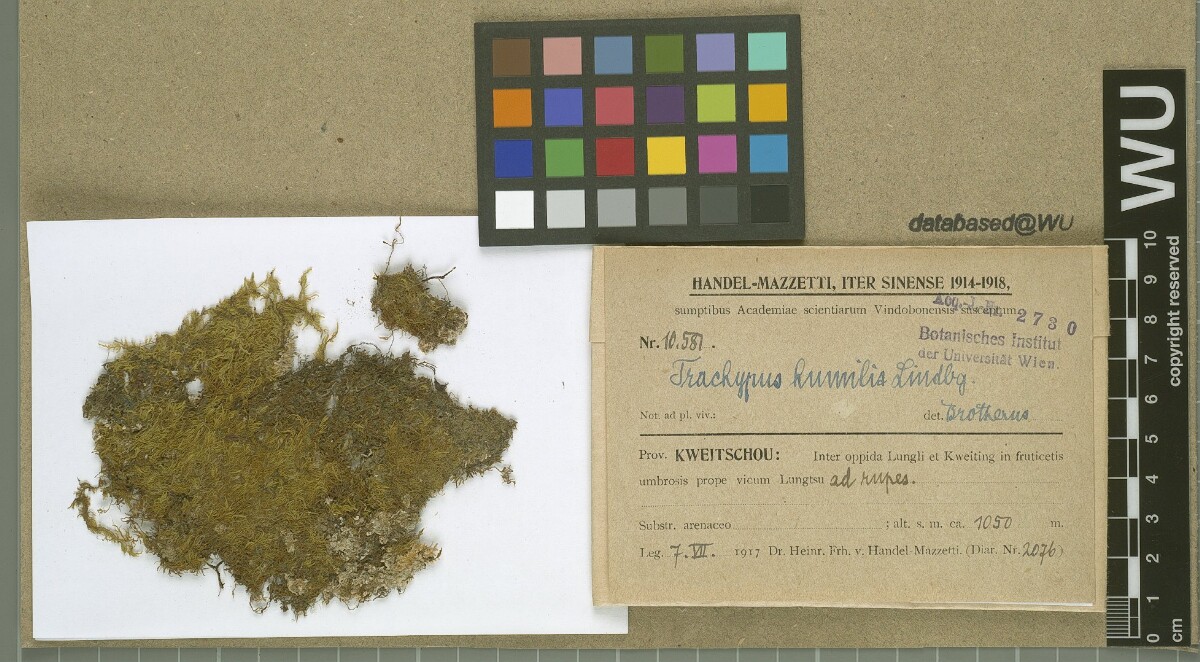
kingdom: Plantae
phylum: Bryophyta
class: Bryopsida
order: Hypnales
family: Meteoriaceae
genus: Trachypus
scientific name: Trachypus humilis
